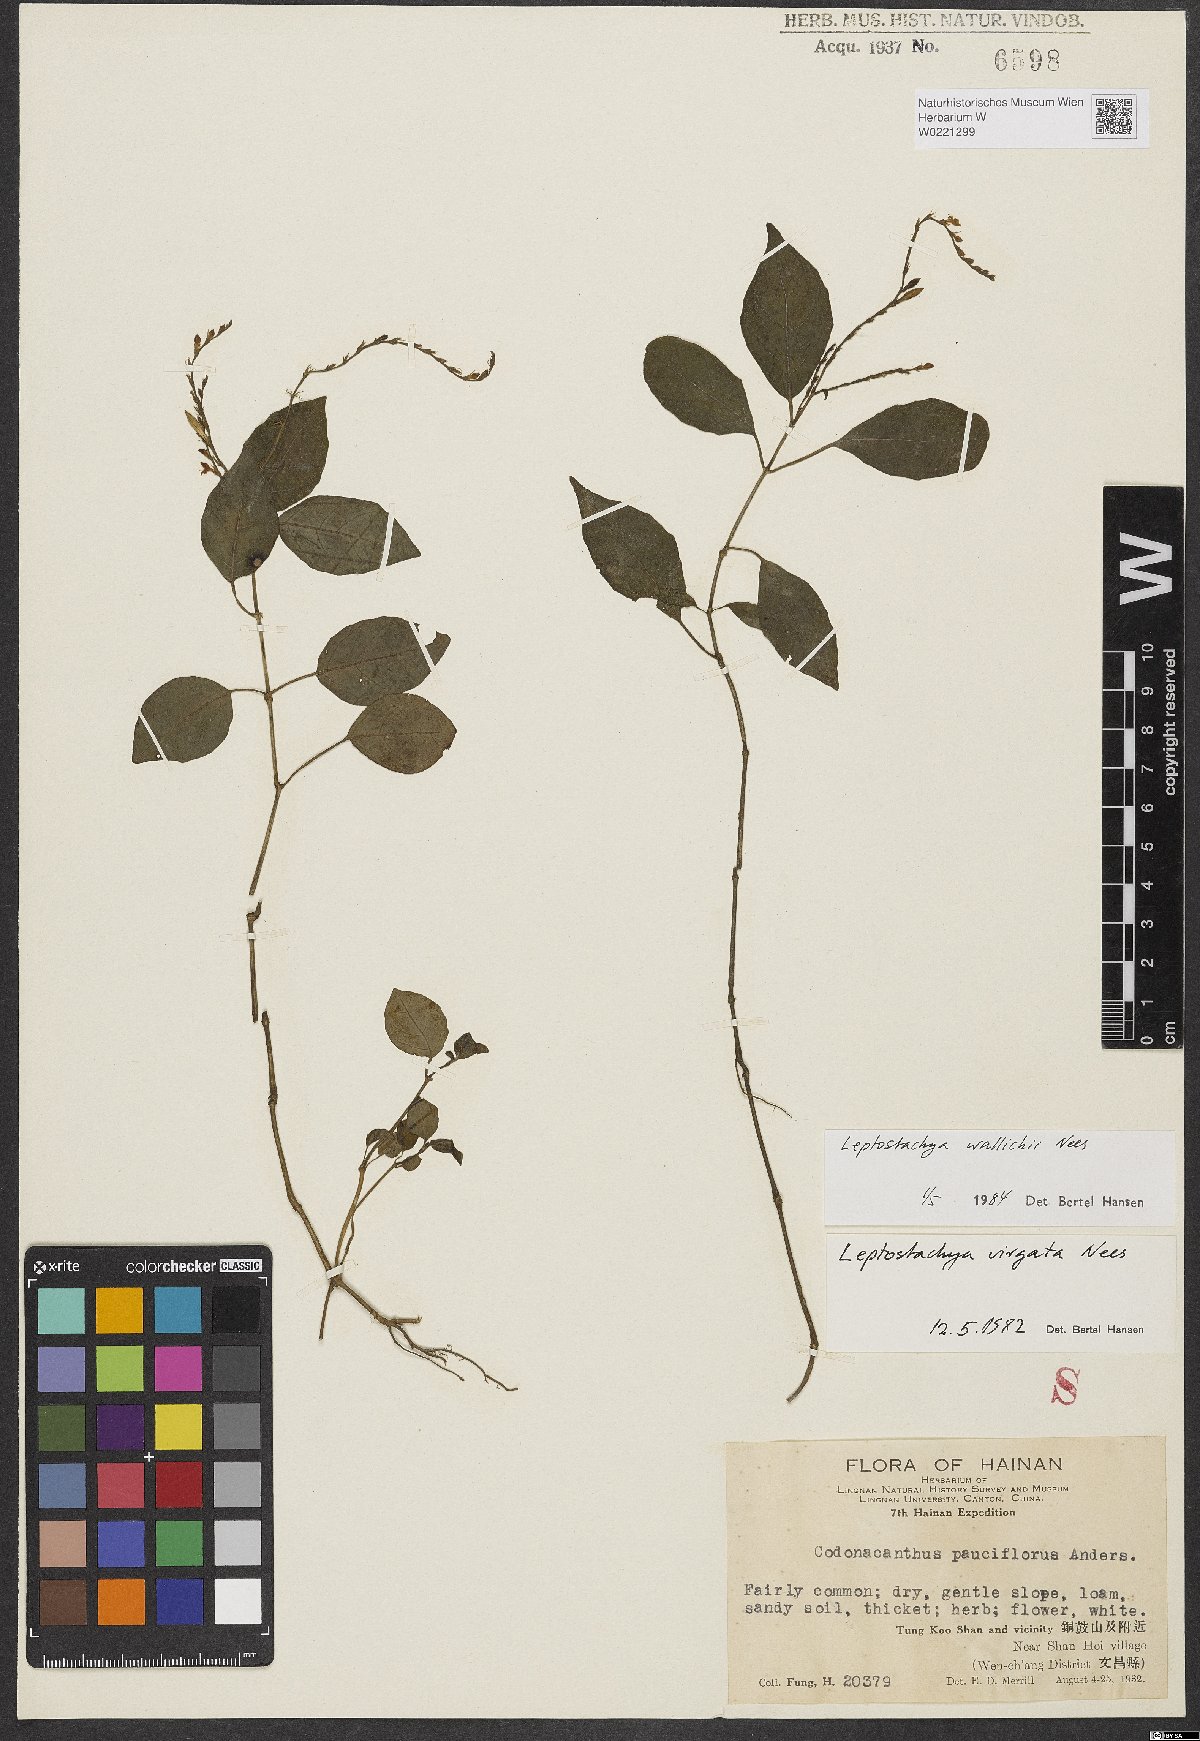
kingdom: Plantae
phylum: Tracheophyta
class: Magnoliopsida
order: Lamiales
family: Acanthaceae
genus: Leptostachya
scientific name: Leptostachya wallichii
